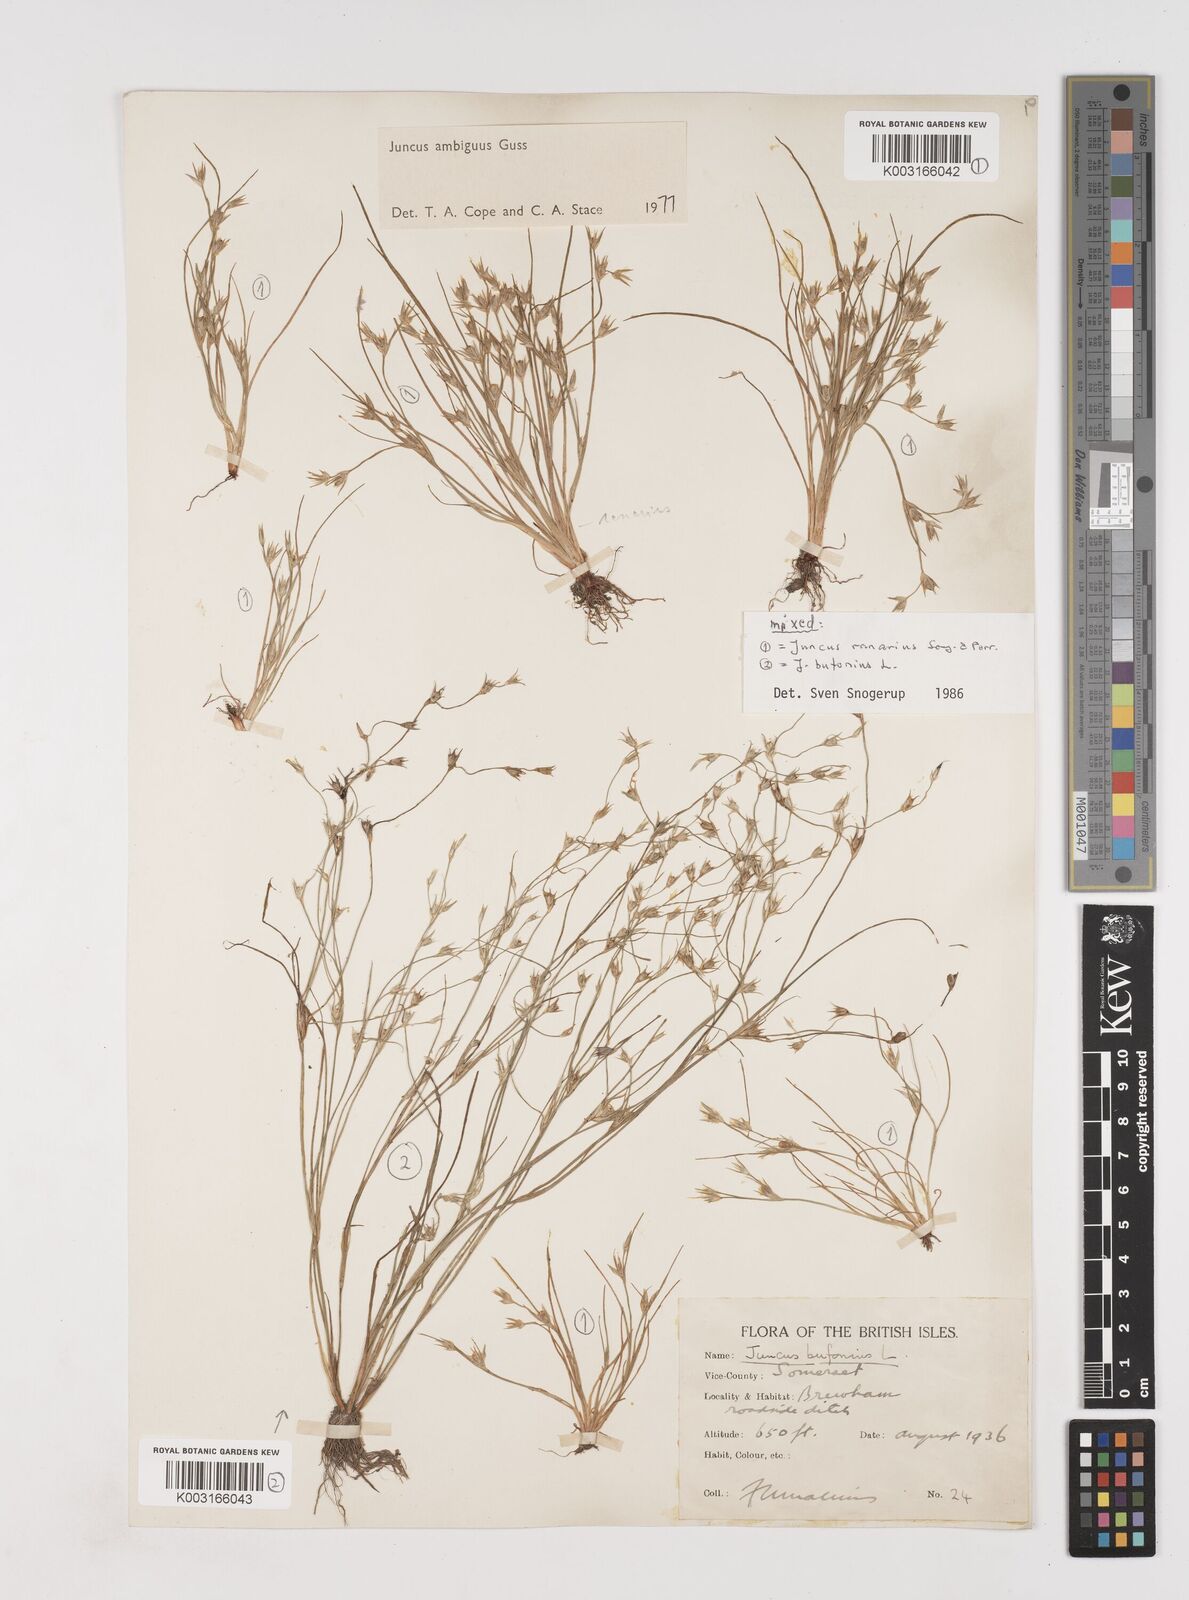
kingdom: Plantae
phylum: Tracheophyta
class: Liliopsida
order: Poales
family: Juncaceae
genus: Juncus
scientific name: Juncus hybridus
